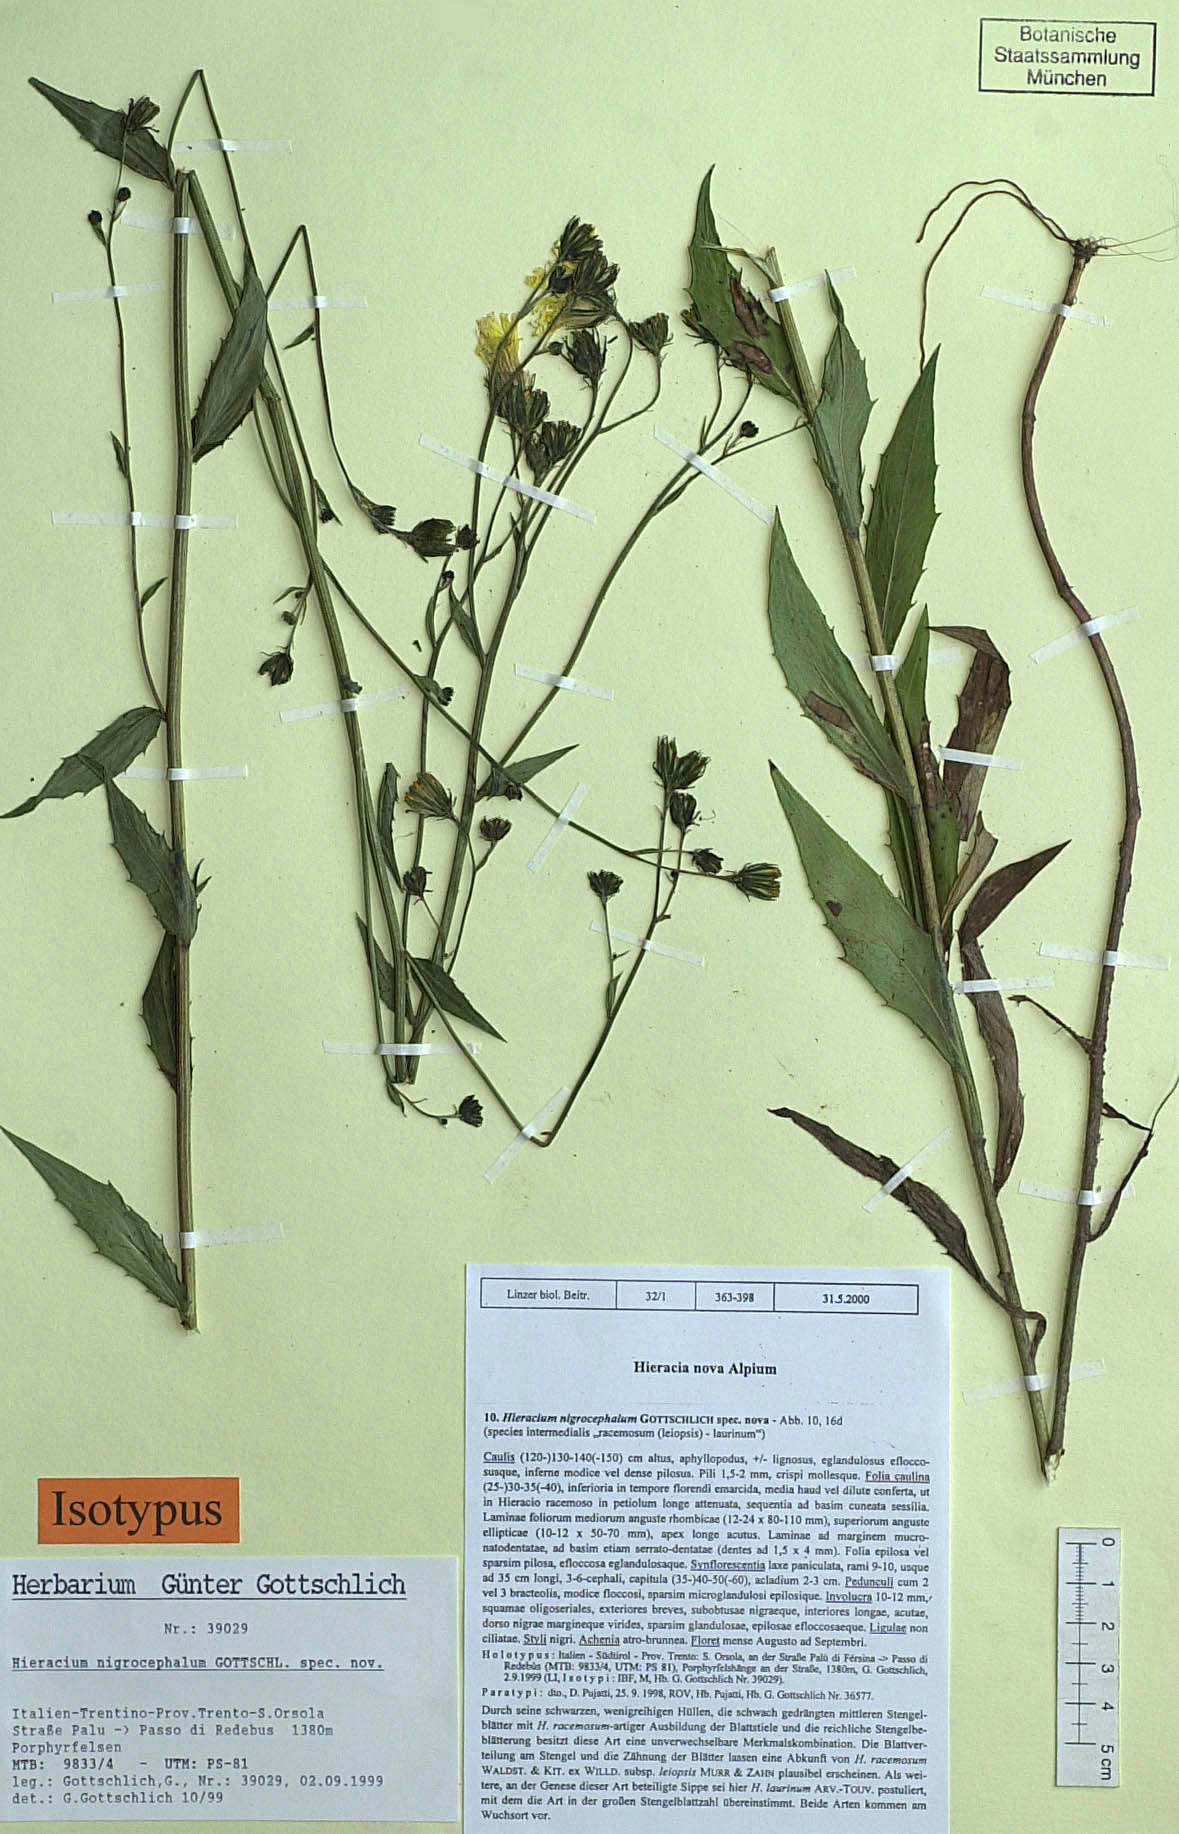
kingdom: Plantae
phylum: Tracheophyta
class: Magnoliopsida
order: Asterales
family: Asteraceae
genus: Hieracium
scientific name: Hieracium calothyrsum
